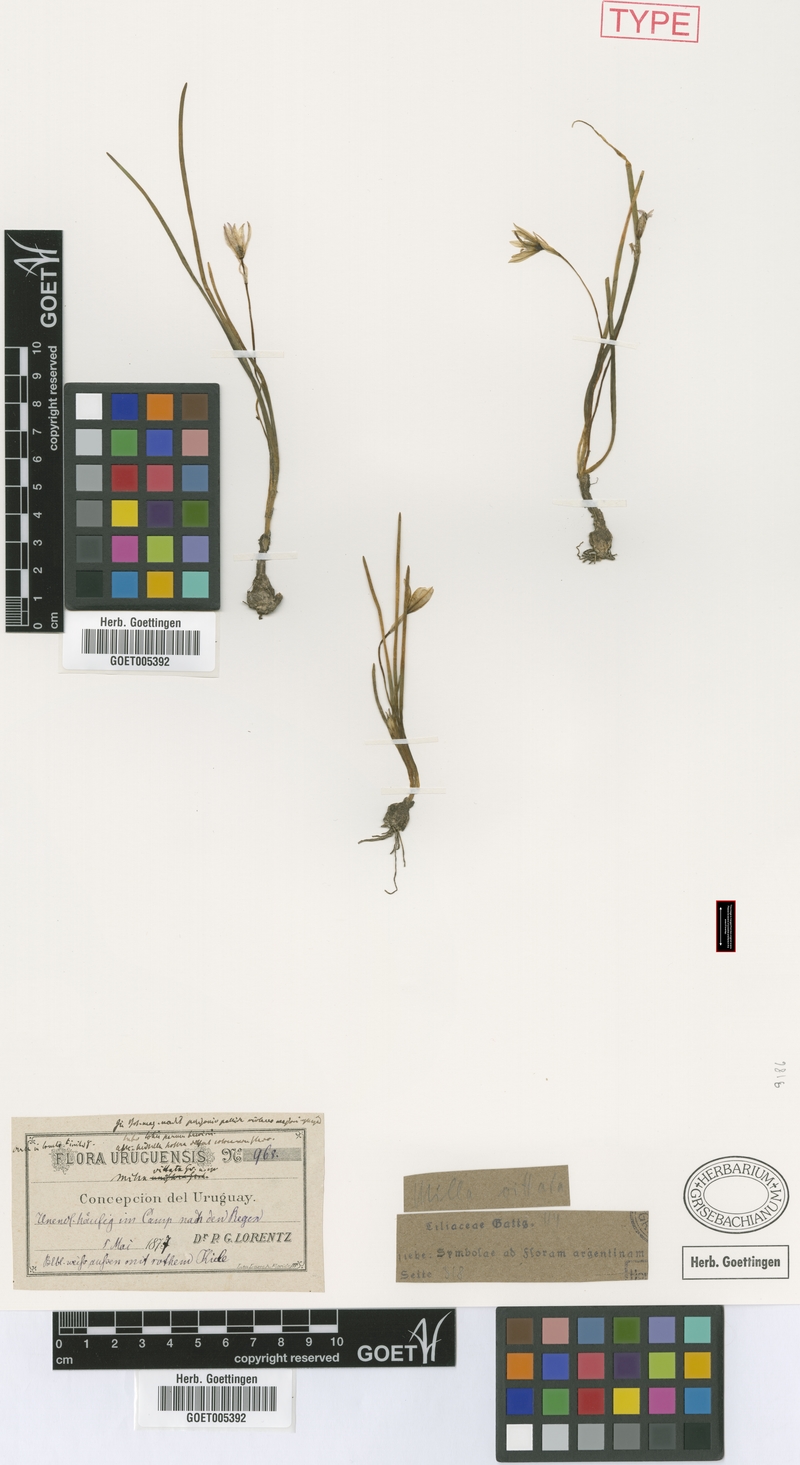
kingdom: Plantae
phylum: Tracheophyta
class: Liliopsida
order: Asparagales
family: Amaryllidaceae
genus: Nothoscordum
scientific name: Nothoscordum vittatum
